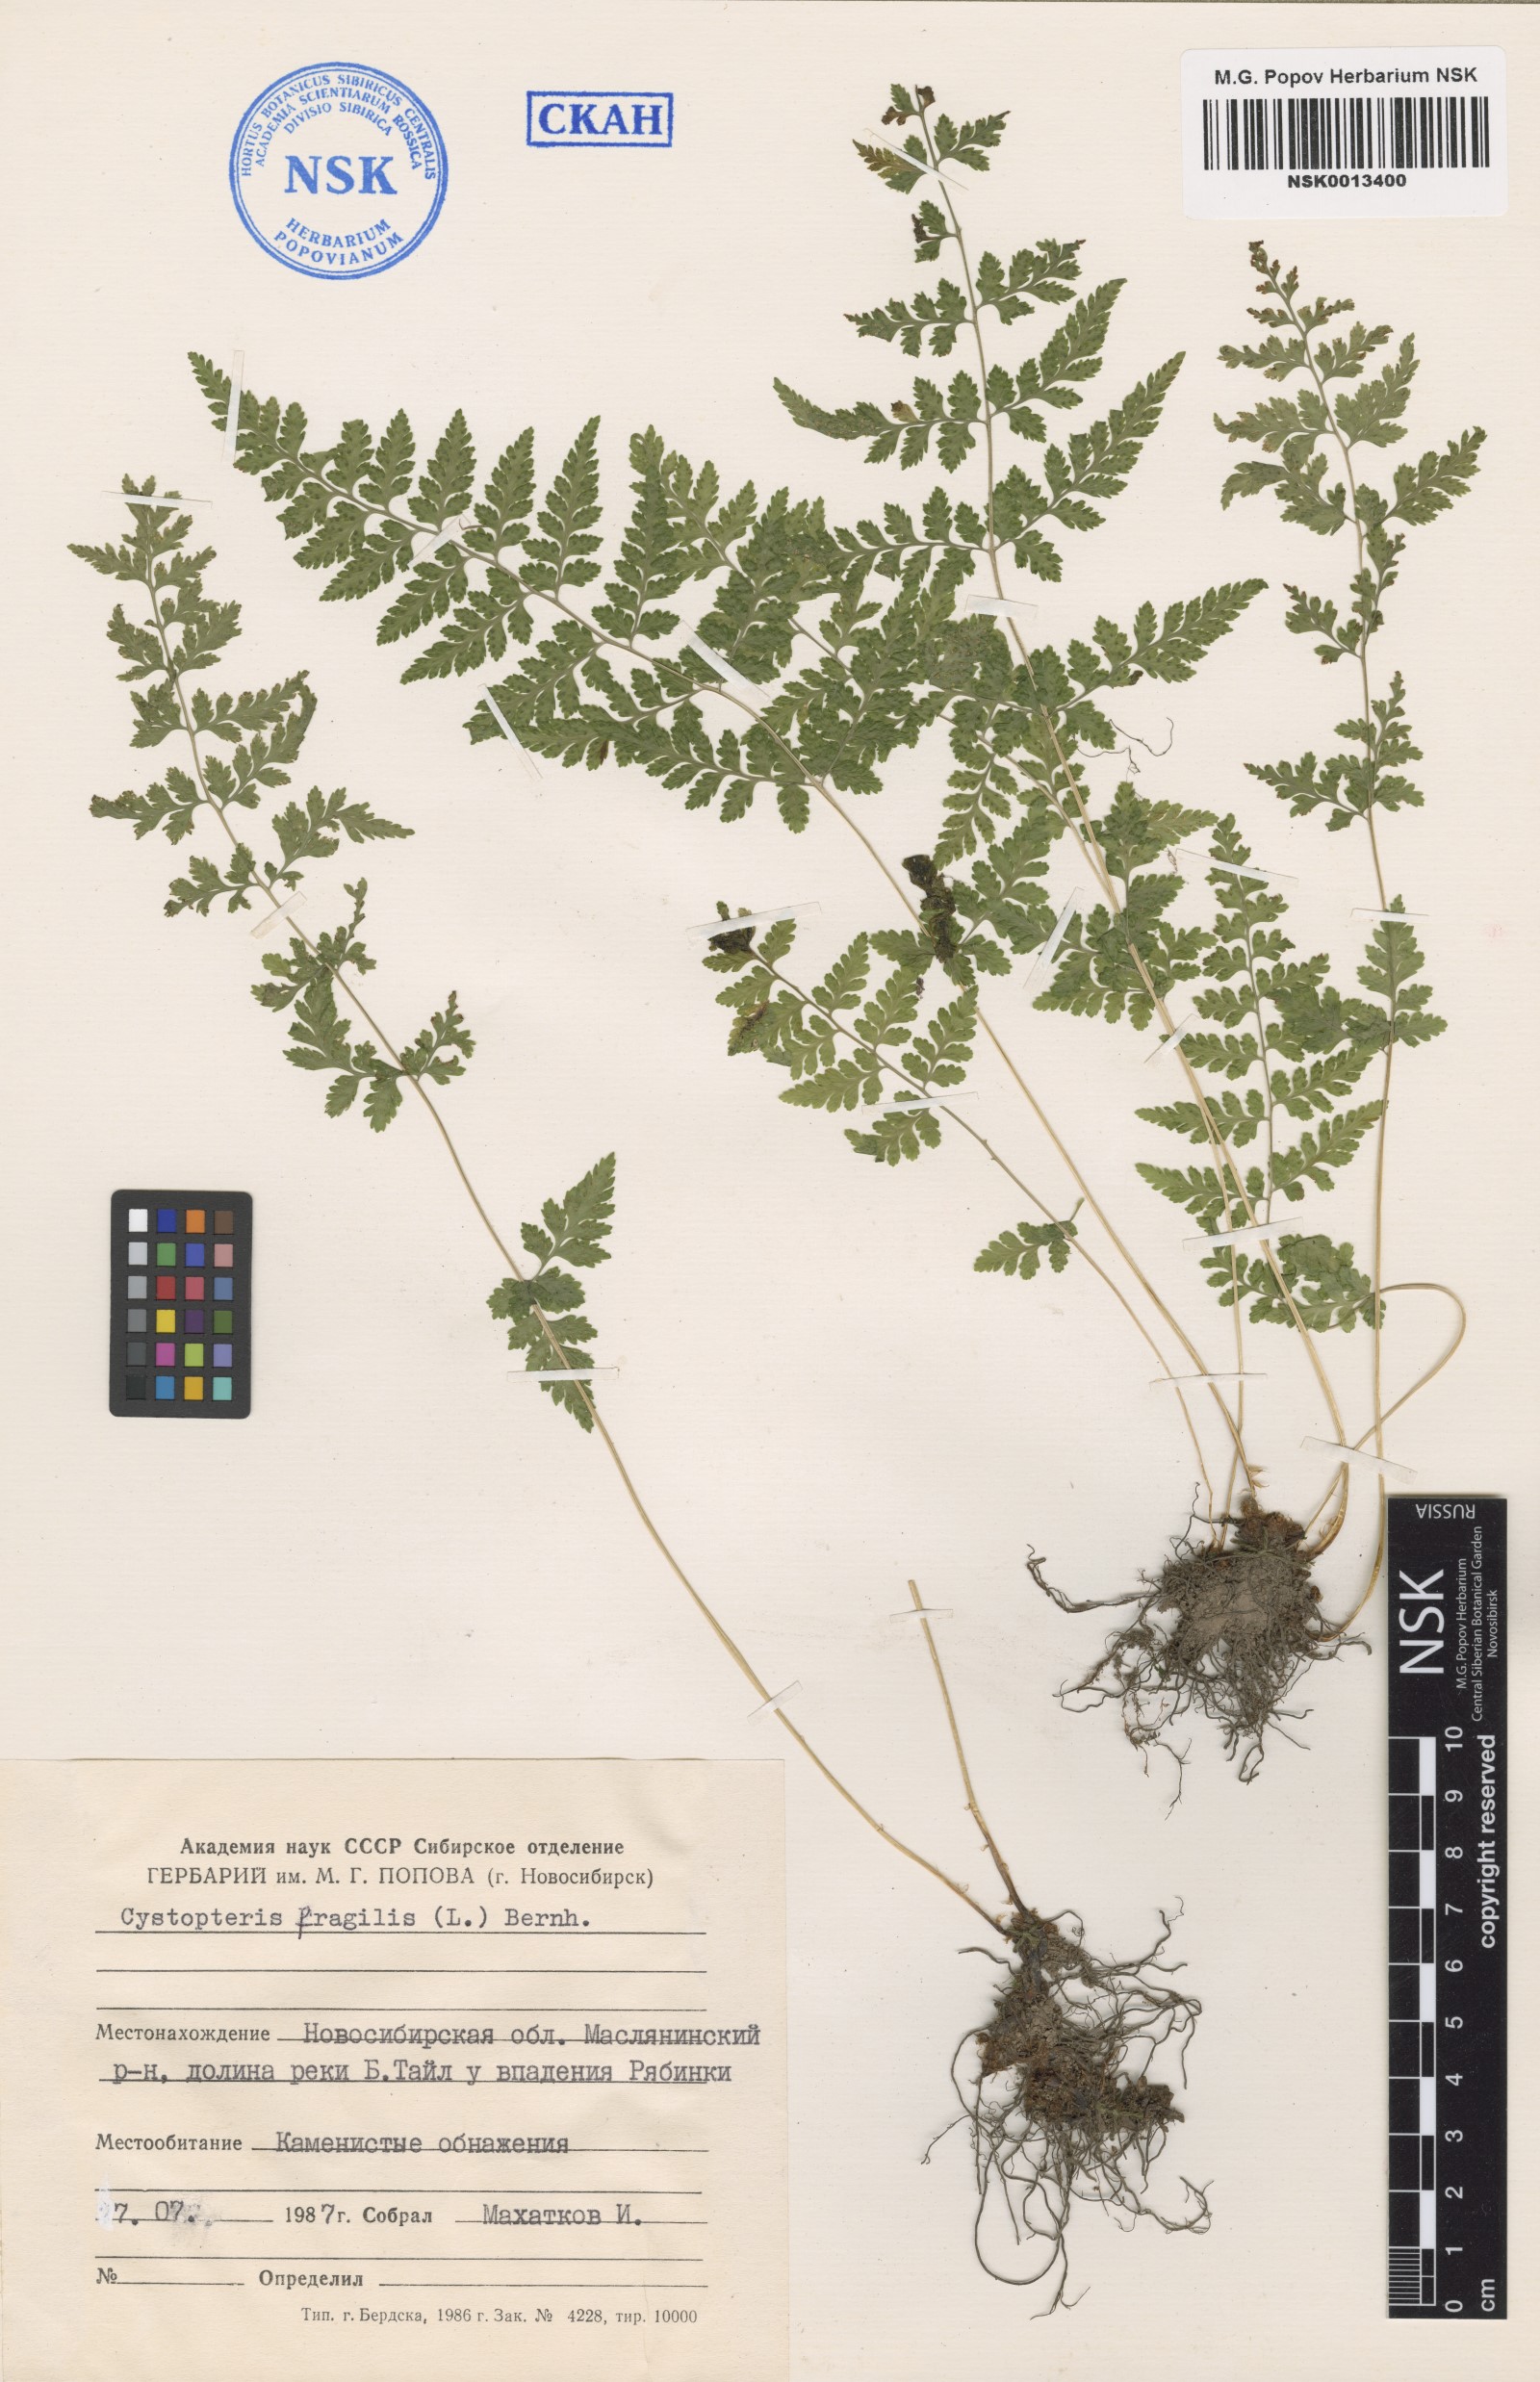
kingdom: Plantae
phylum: Tracheophyta
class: Polypodiopsida
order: Polypodiales
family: Cystopteridaceae
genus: Cystopteris
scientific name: Cystopteris fragilis
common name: Brittle bladder fern
